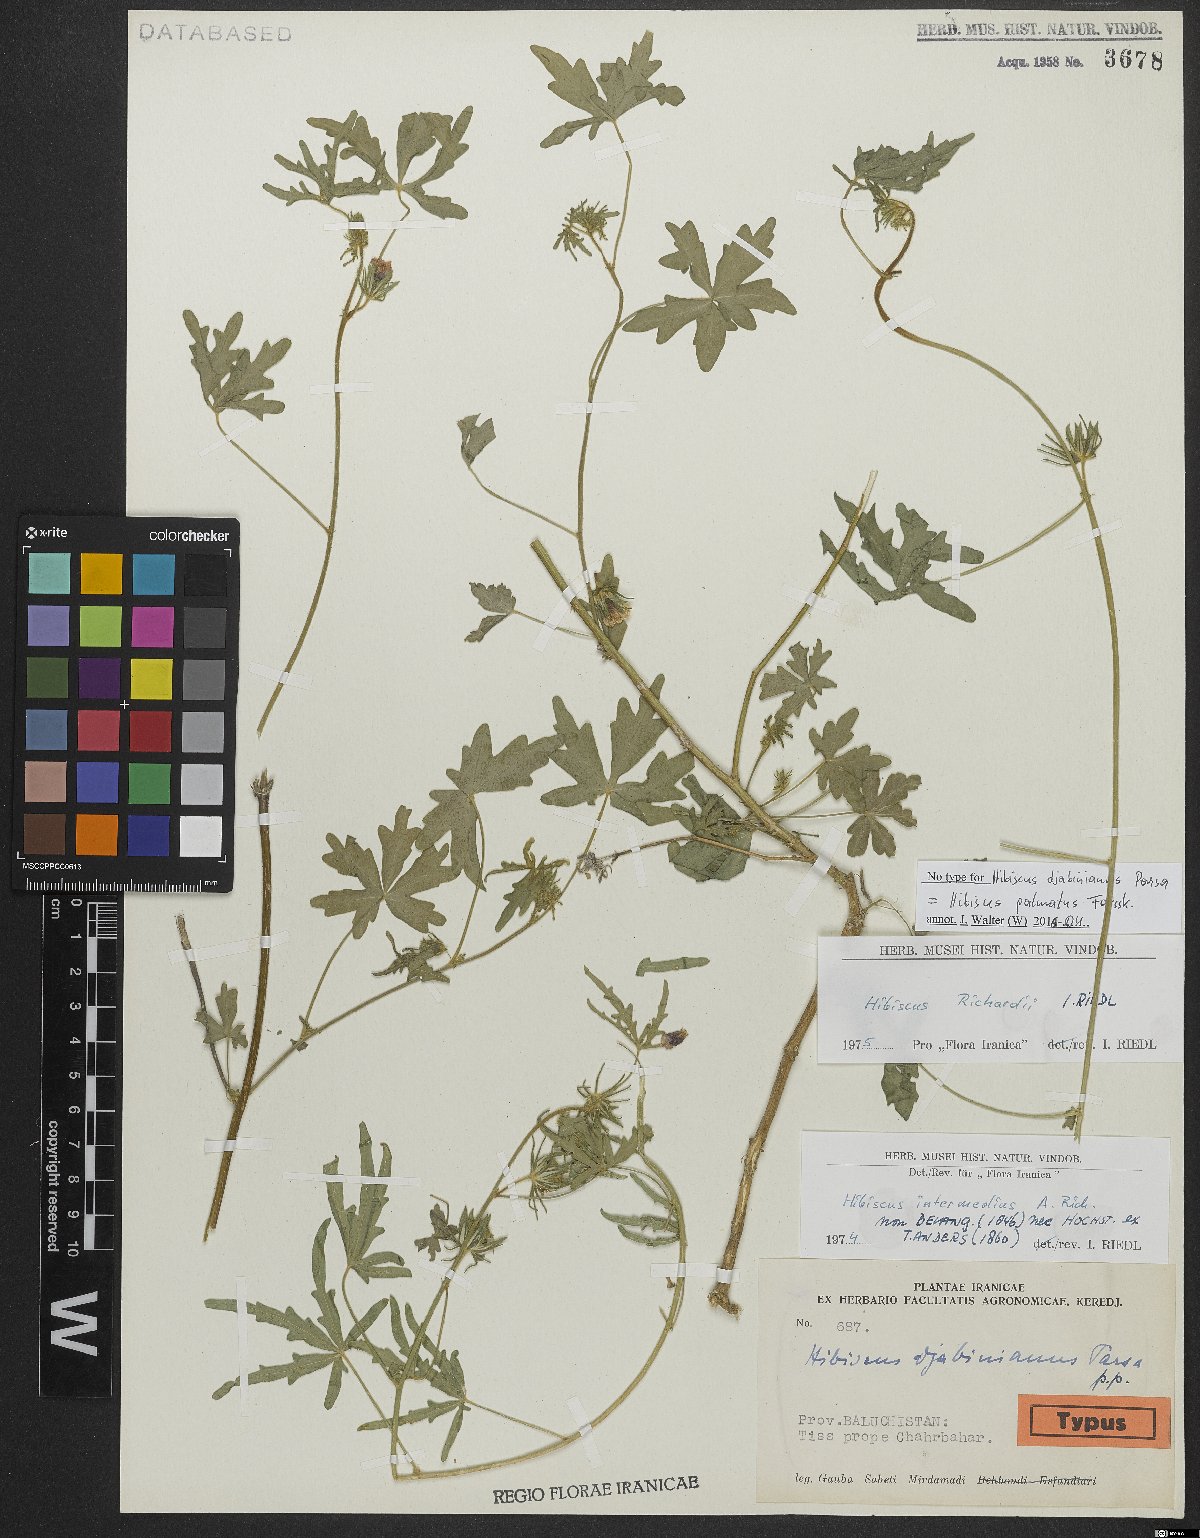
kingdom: Plantae
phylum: Tracheophyta
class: Magnoliopsida
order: Malvales
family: Malvaceae
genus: Hibiscus
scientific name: Hibiscus palmatus
